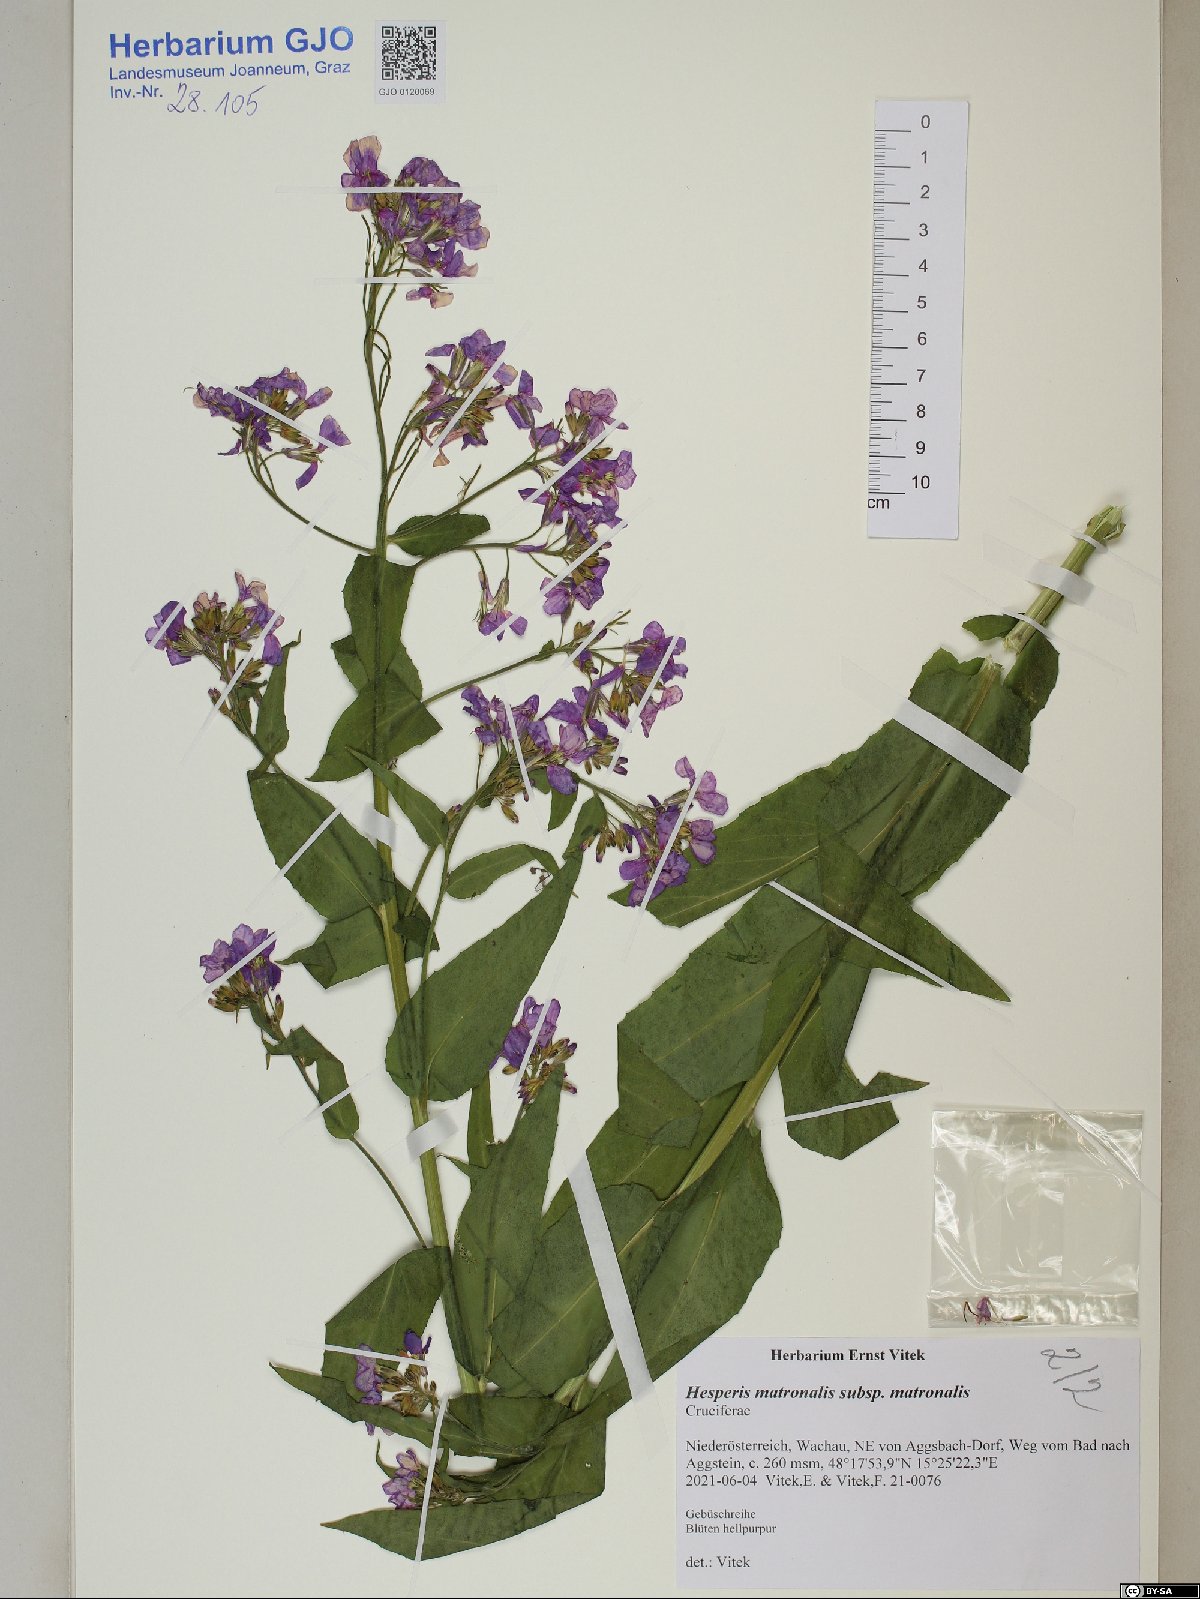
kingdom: Plantae
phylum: Tracheophyta
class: Magnoliopsida
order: Brassicales
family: Brassicaceae
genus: Hesperis
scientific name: Hesperis matronalis
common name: Dame's-violet
